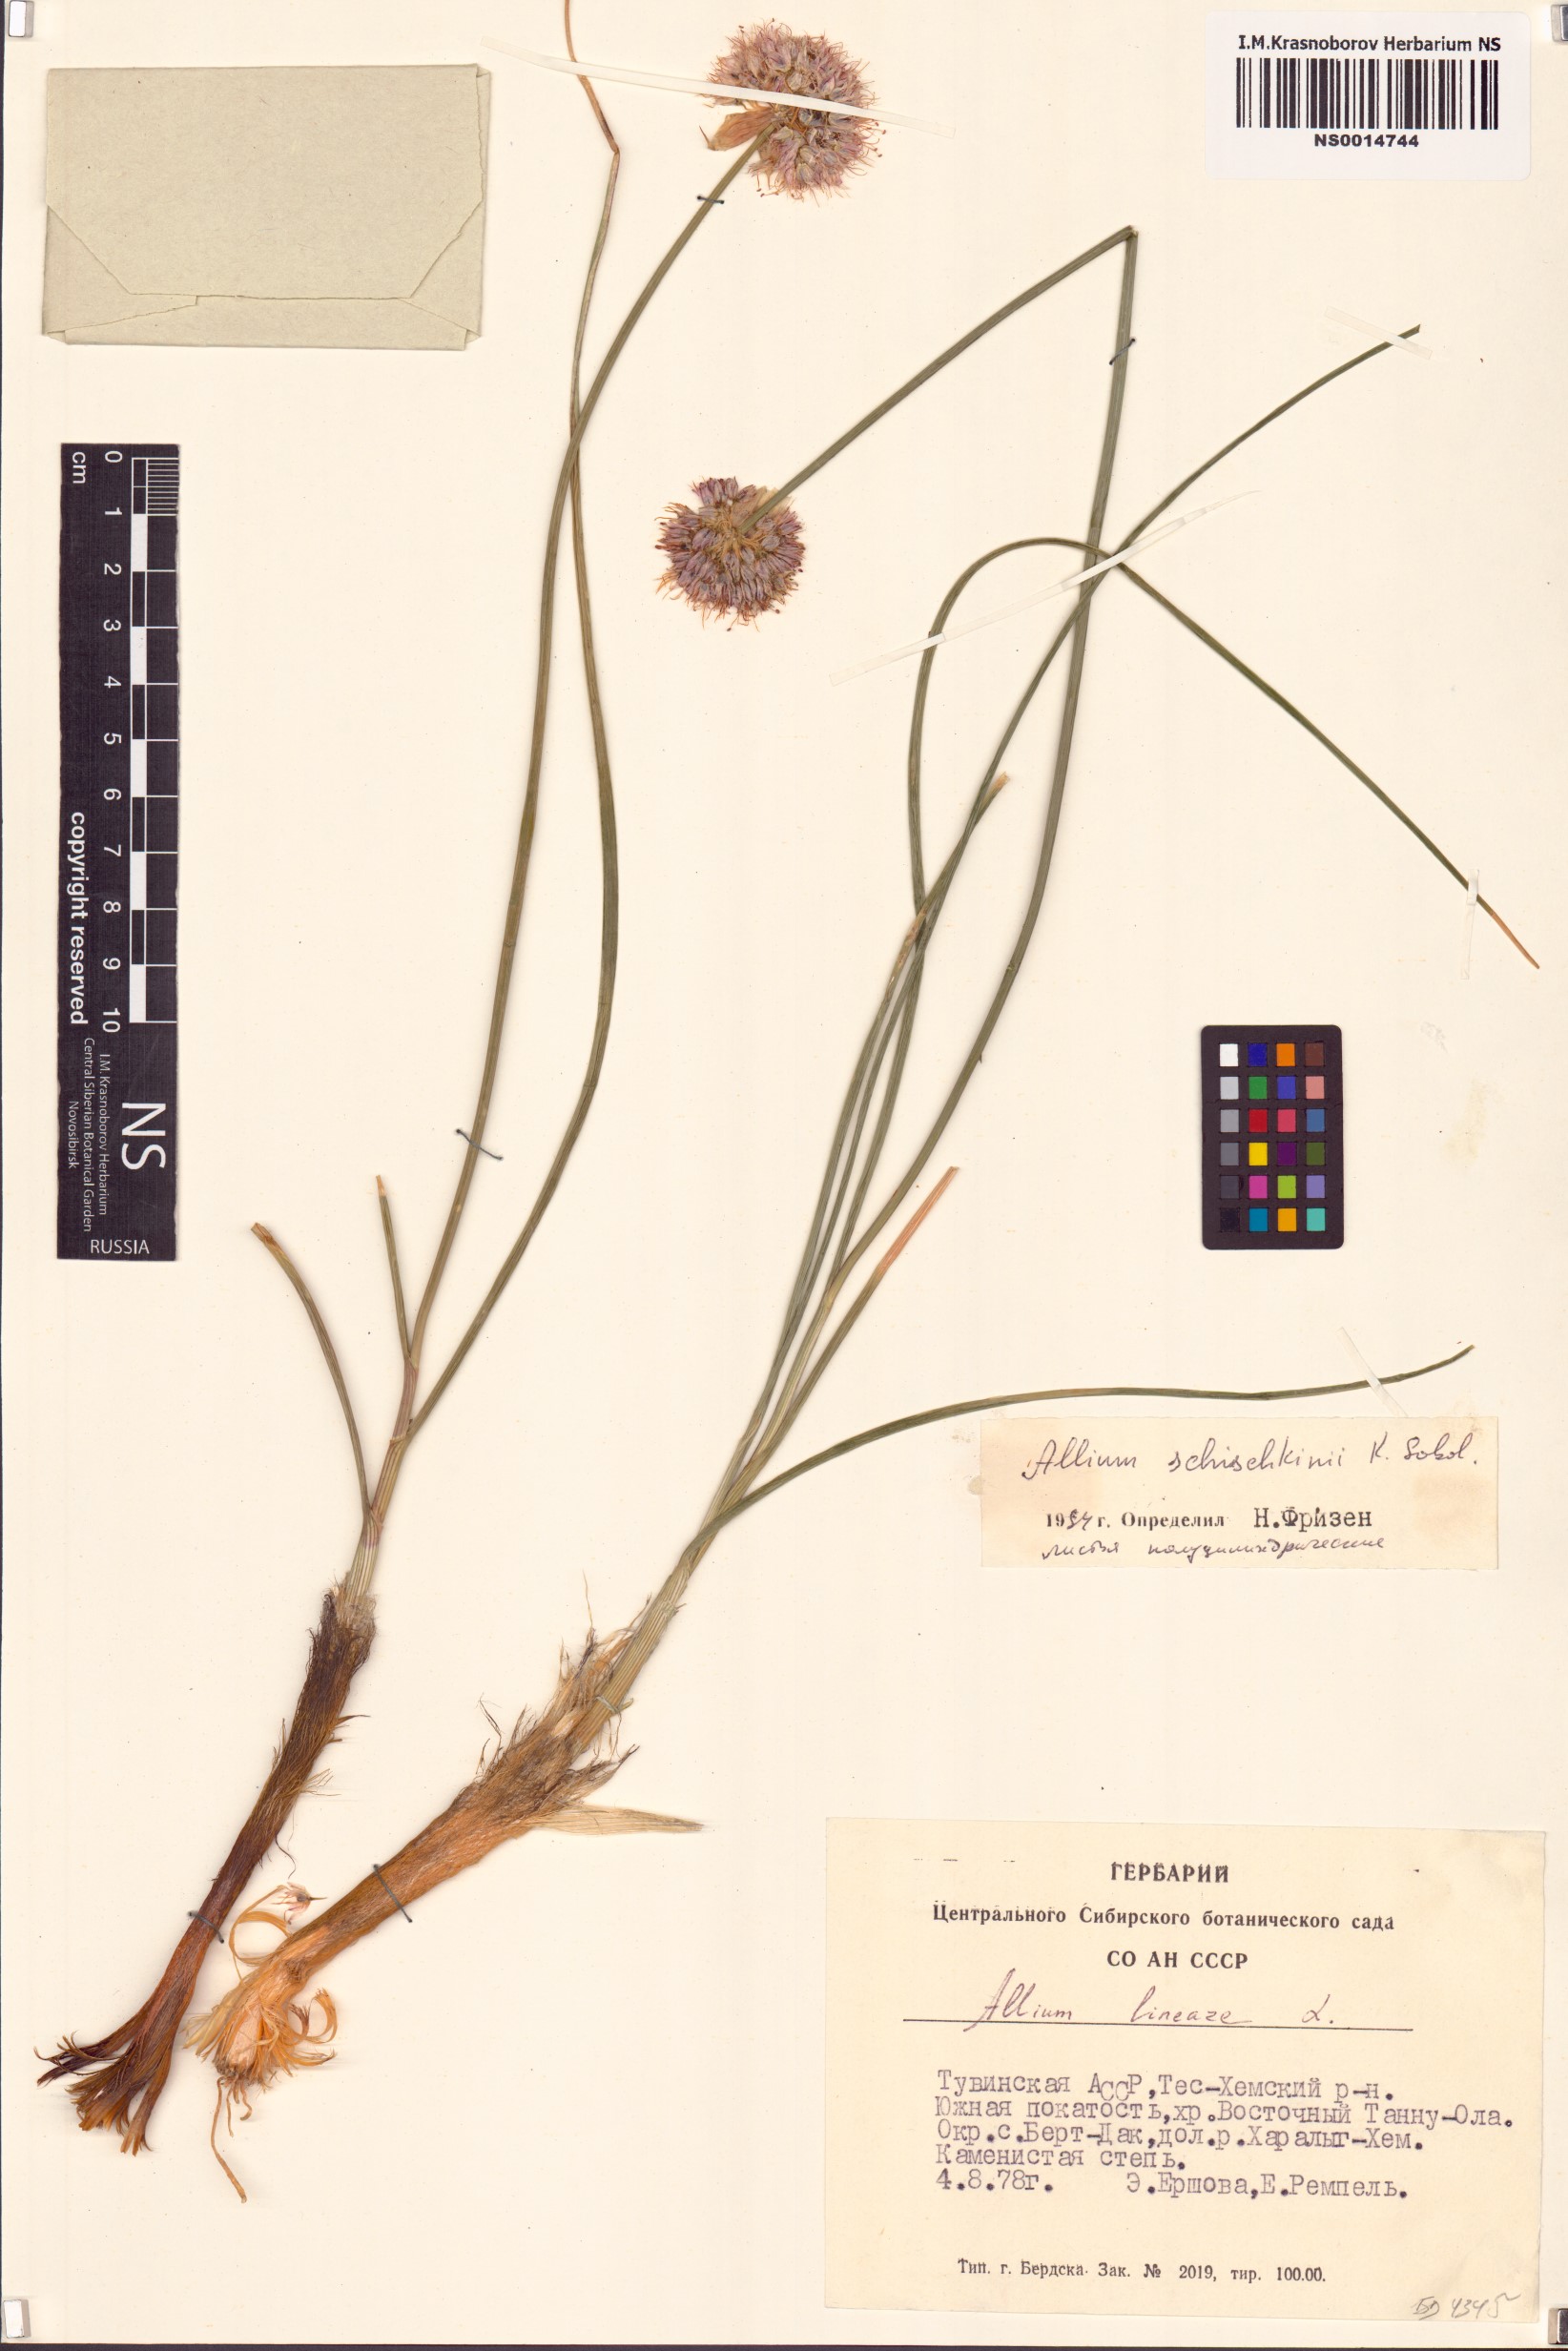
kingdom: Plantae
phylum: Tracheophyta
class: Liliopsida
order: Asparagales
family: Amaryllidaceae
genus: Allium
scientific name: Allium schischkinii
